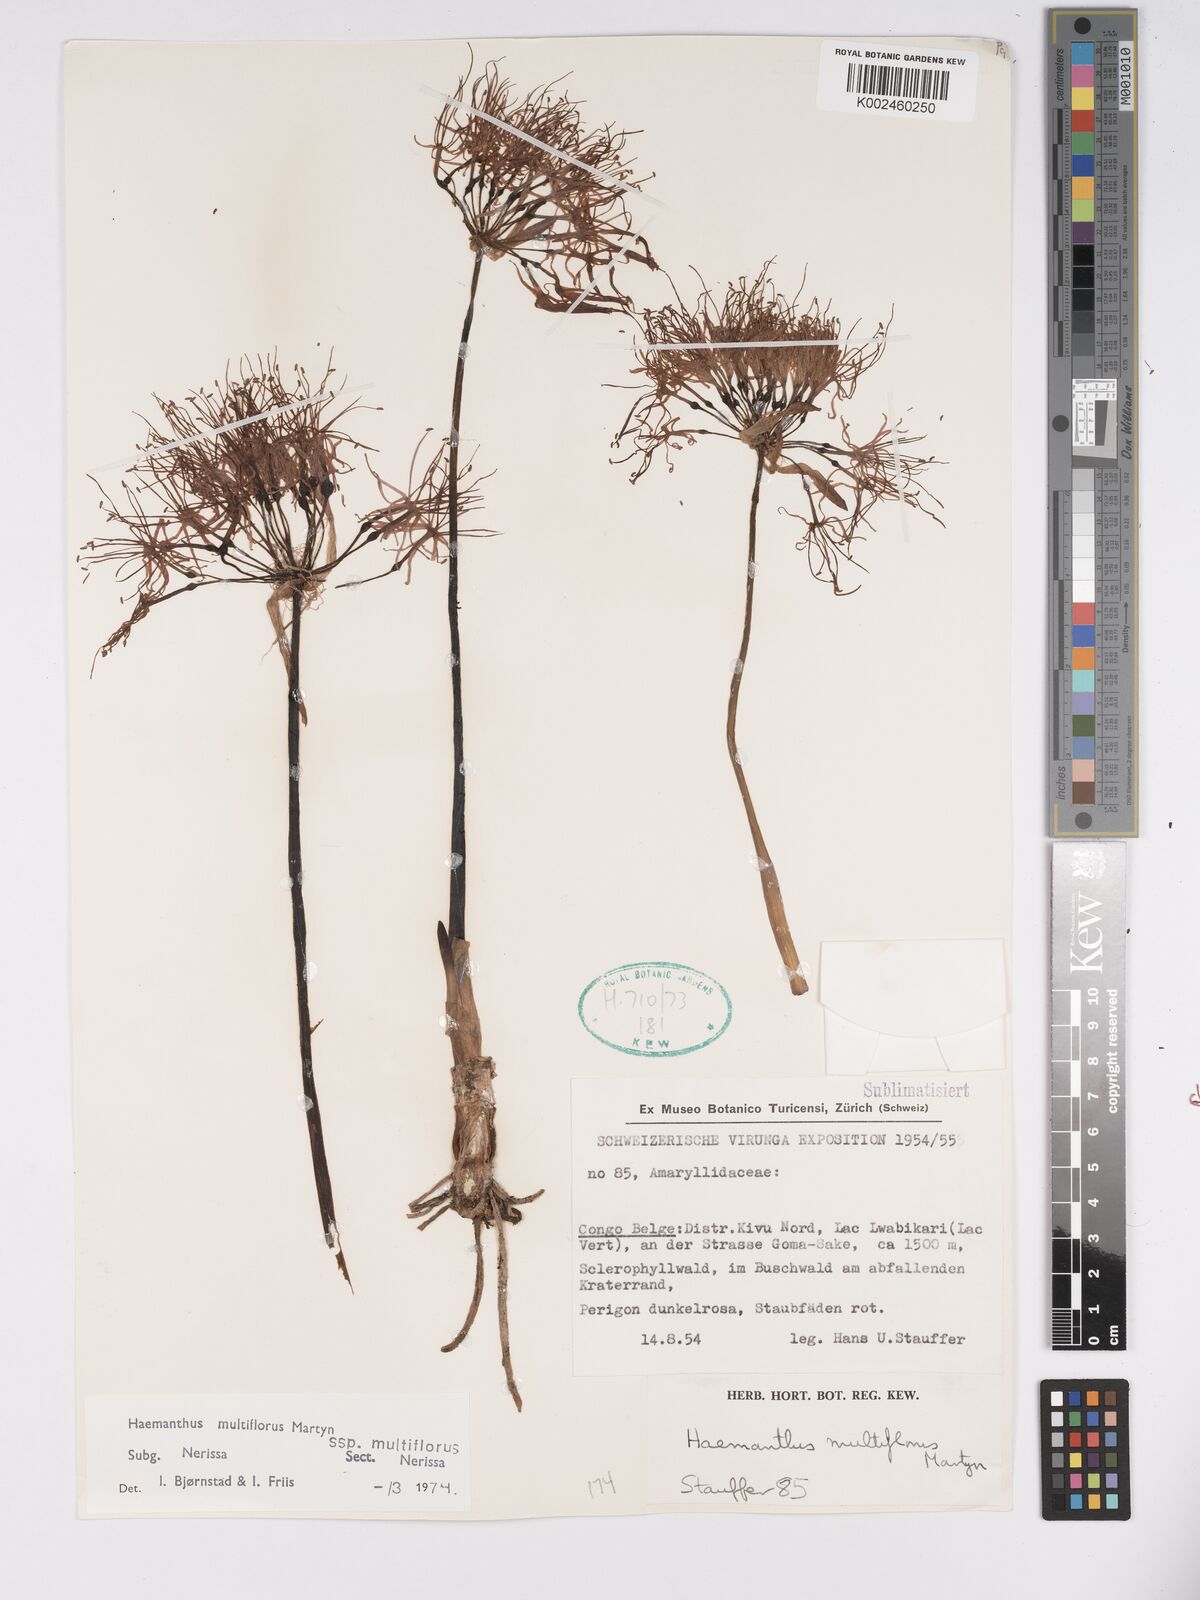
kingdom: Plantae
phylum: Tracheophyta
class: Liliopsida
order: Asparagales
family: Amaryllidaceae
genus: Scadoxus
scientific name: Scadoxus multiflorus
